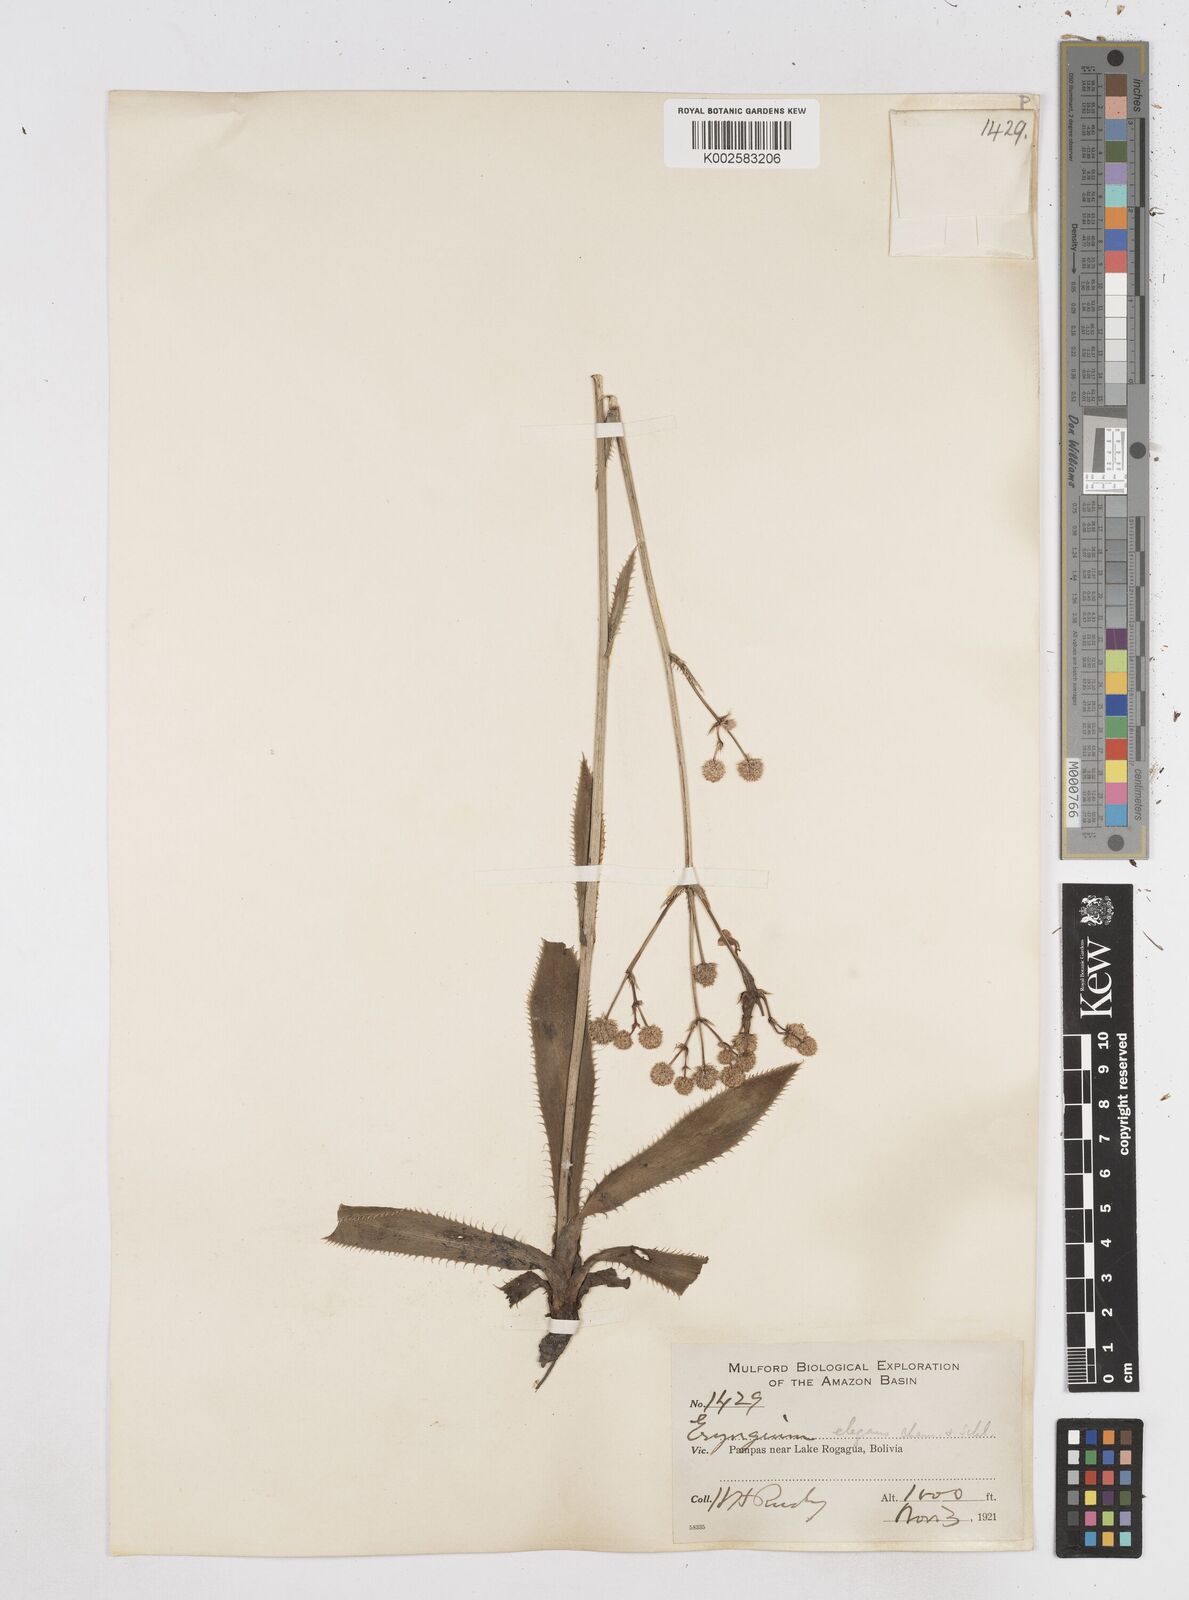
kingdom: Plantae
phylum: Tracheophyta
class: Magnoliopsida
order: Apiales
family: Apiaceae
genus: Eryngium
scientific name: Eryngium elegans
